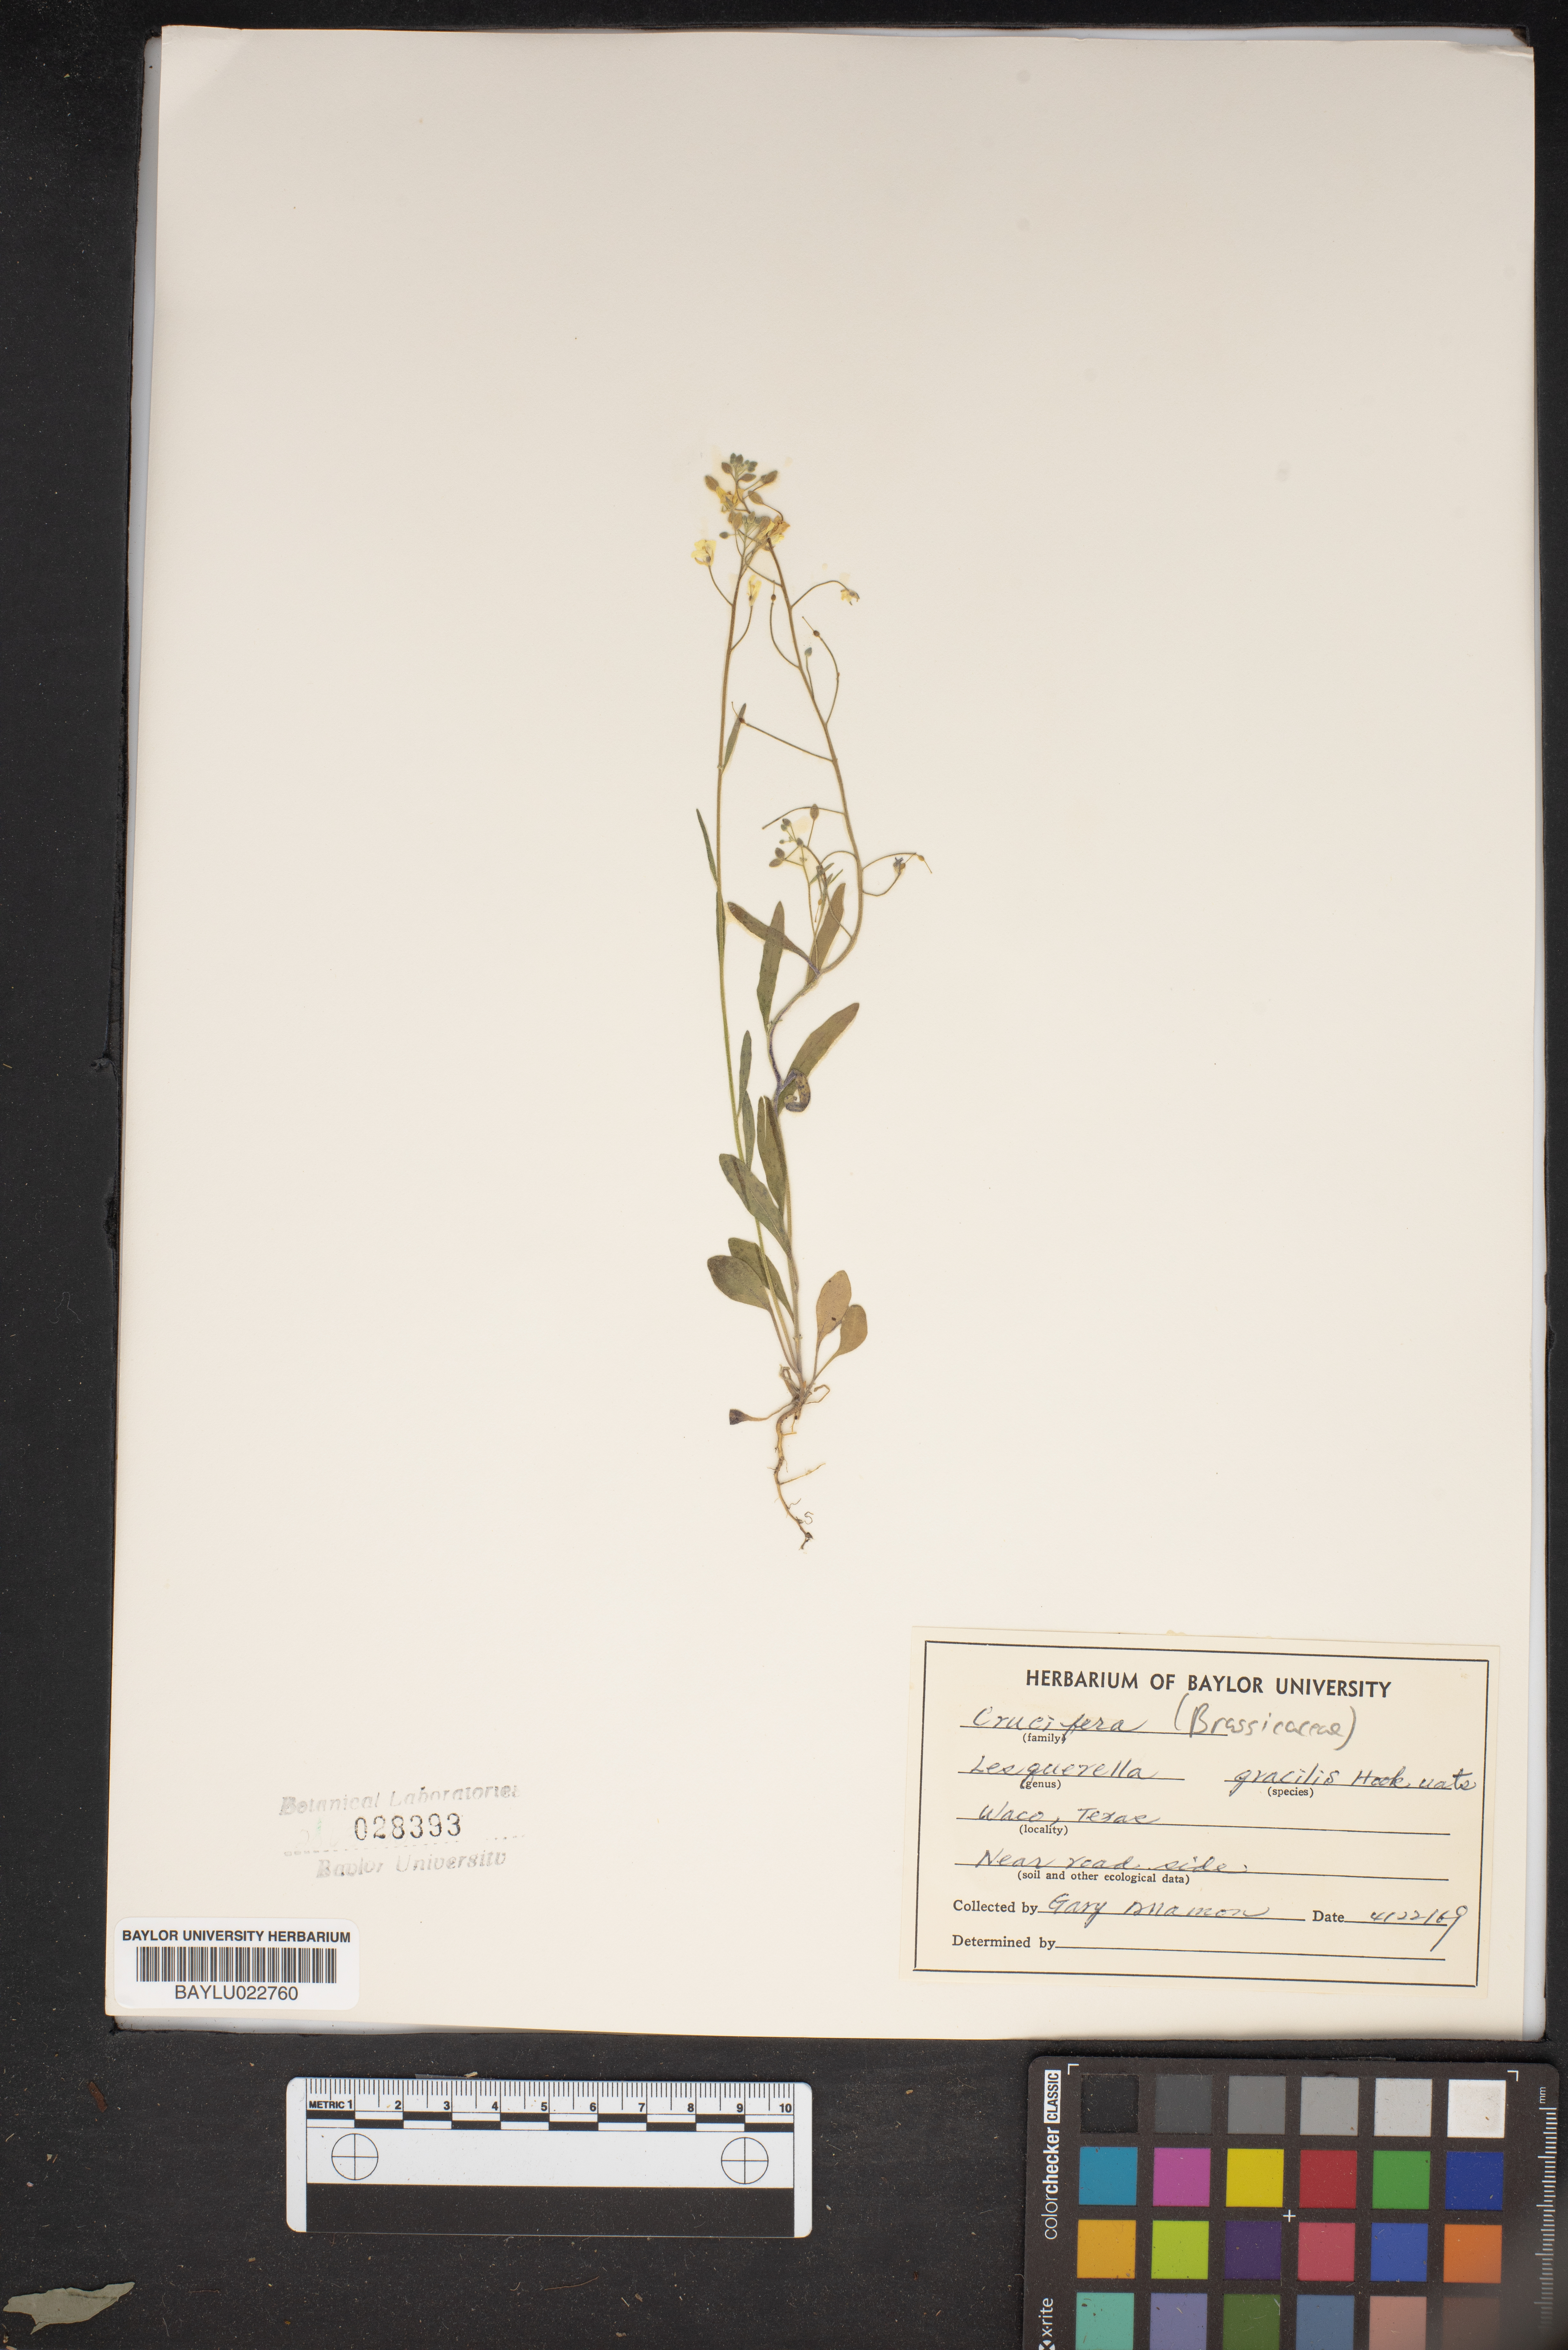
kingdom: Plantae
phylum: Tracheophyta
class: Magnoliopsida
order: Brassicales
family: Brassicaceae
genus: Physaria
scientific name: Physaria gracilis
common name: Spreading bladderpod
